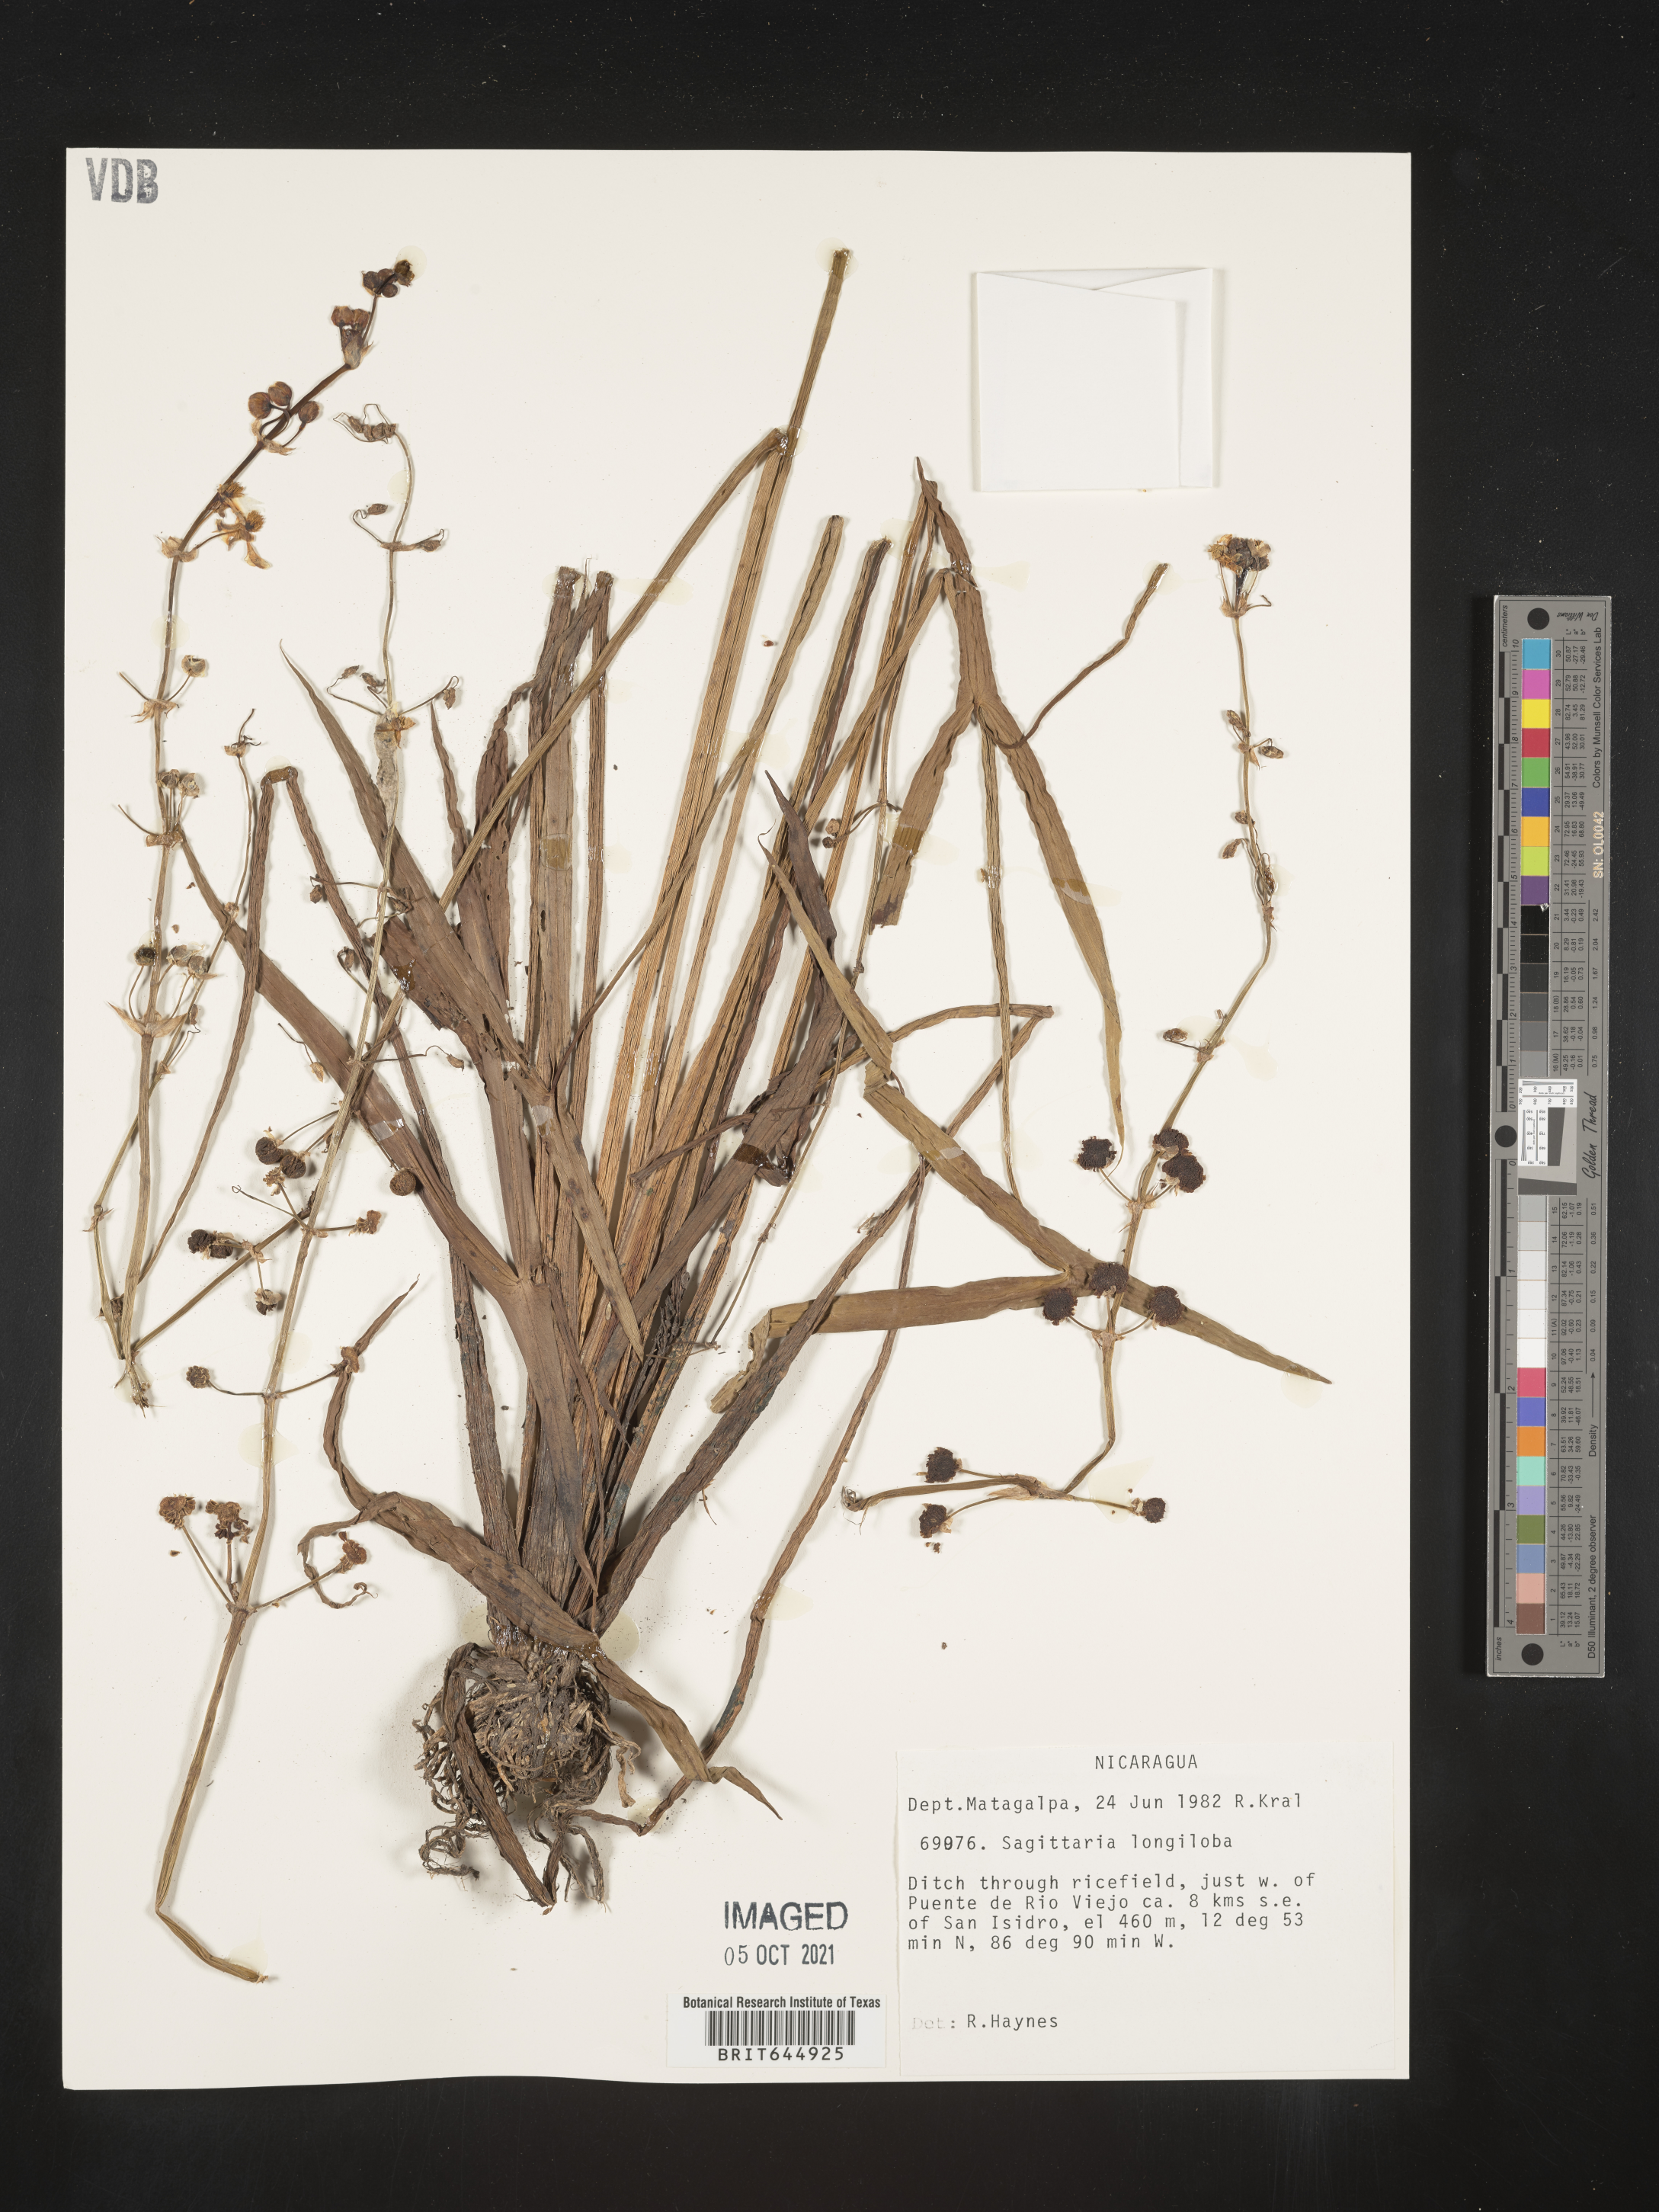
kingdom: Plantae
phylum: Tracheophyta
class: Liliopsida
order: Alismatales
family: Alismataceae
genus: Sagittaria
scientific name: Sagittaria longiloba
